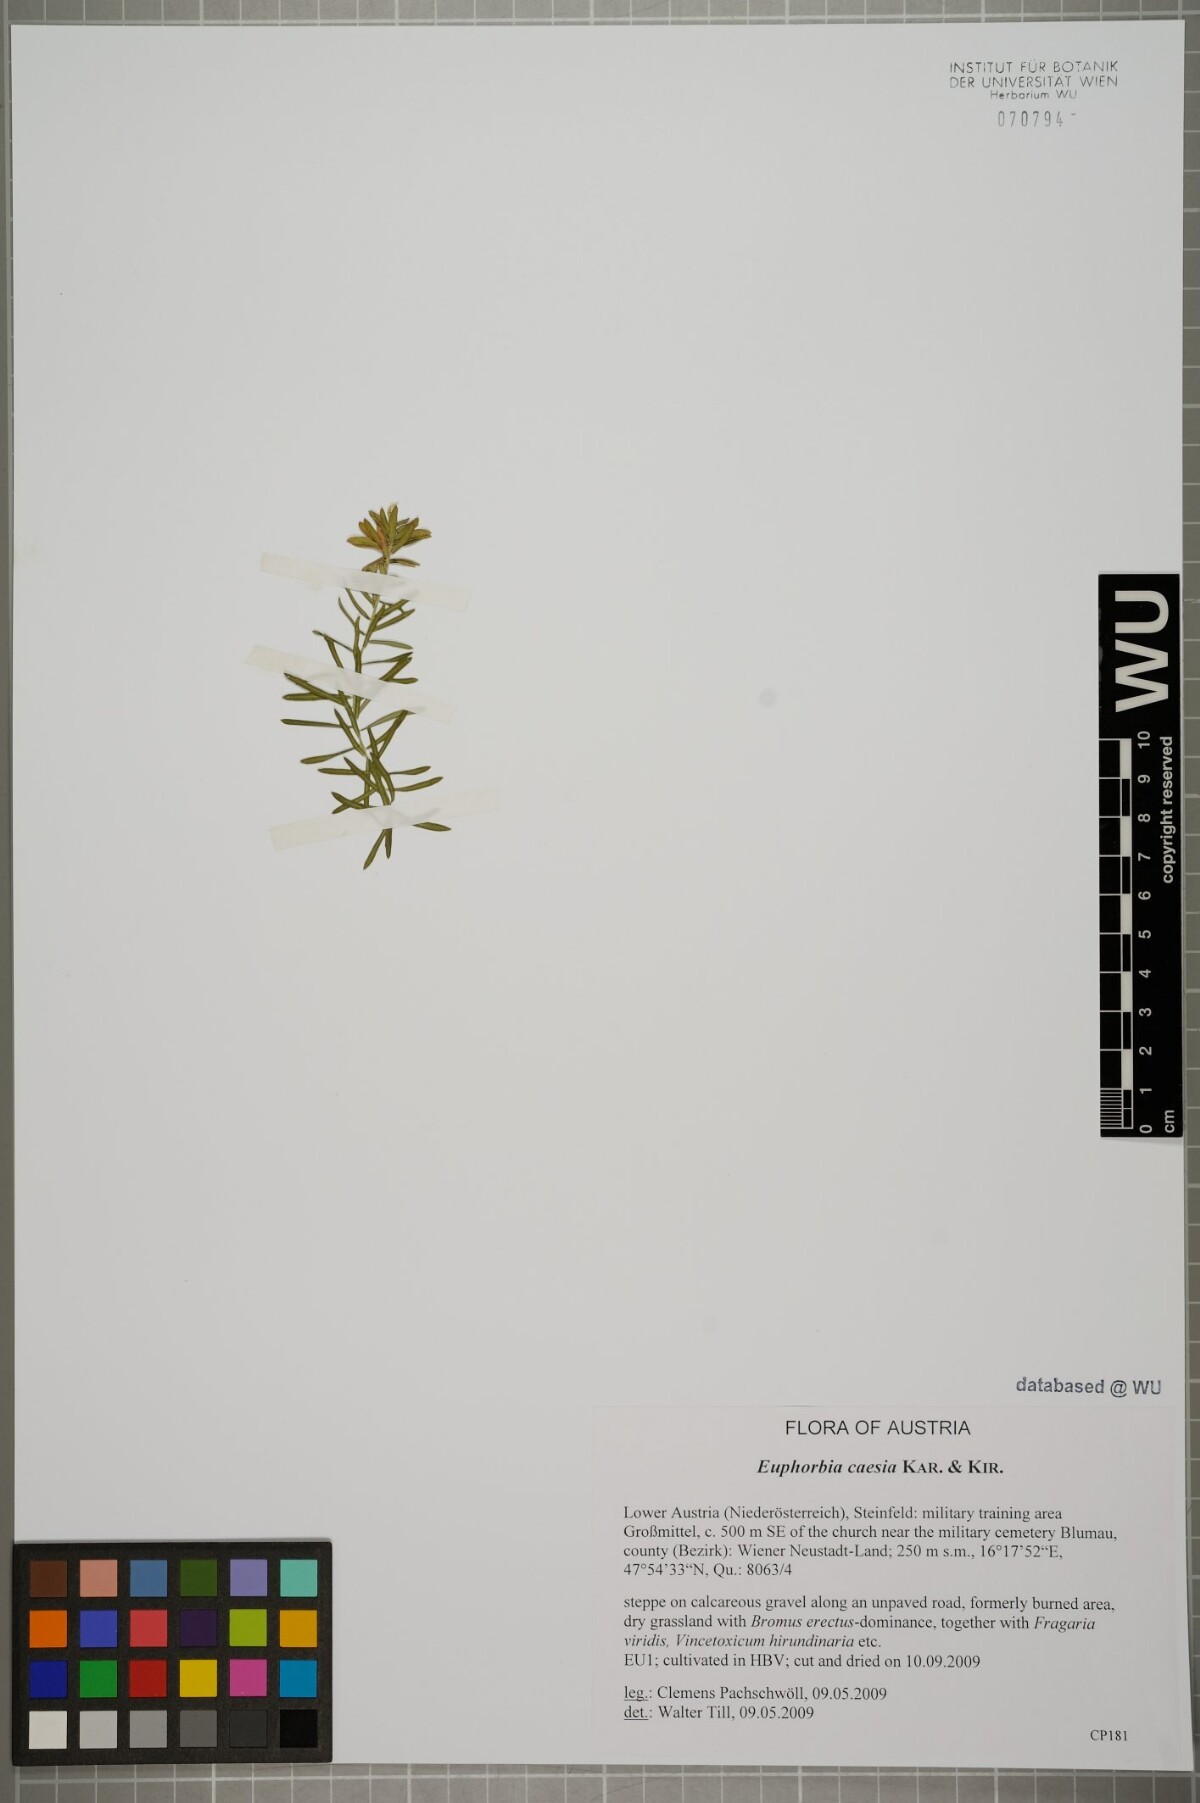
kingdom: Plantae
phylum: Tracheophyta
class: Magnoliopsida
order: Malpighiales
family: Euphorbiaceae
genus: Euphorbia
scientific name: Euphorbia caesia
